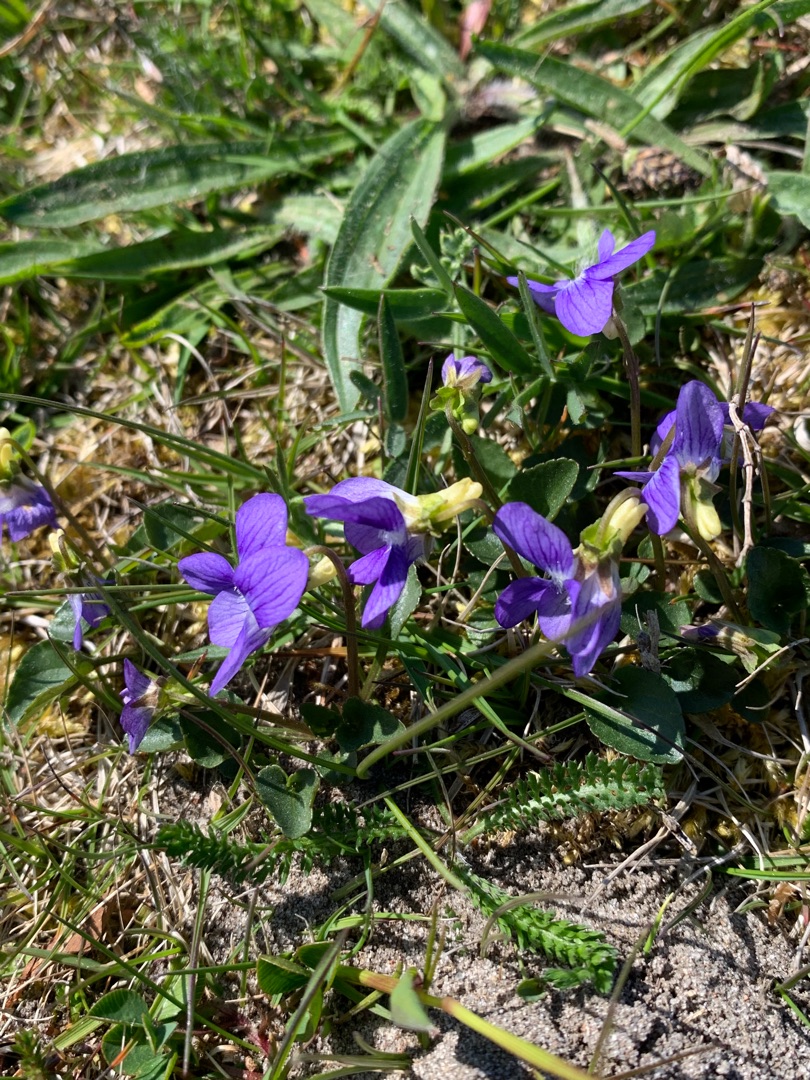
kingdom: Plantae
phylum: Tracheophyta
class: Magnoliopsida
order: Malpighiales
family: Violaceae
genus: Viola
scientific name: Viola canina
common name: Hunde-viol
